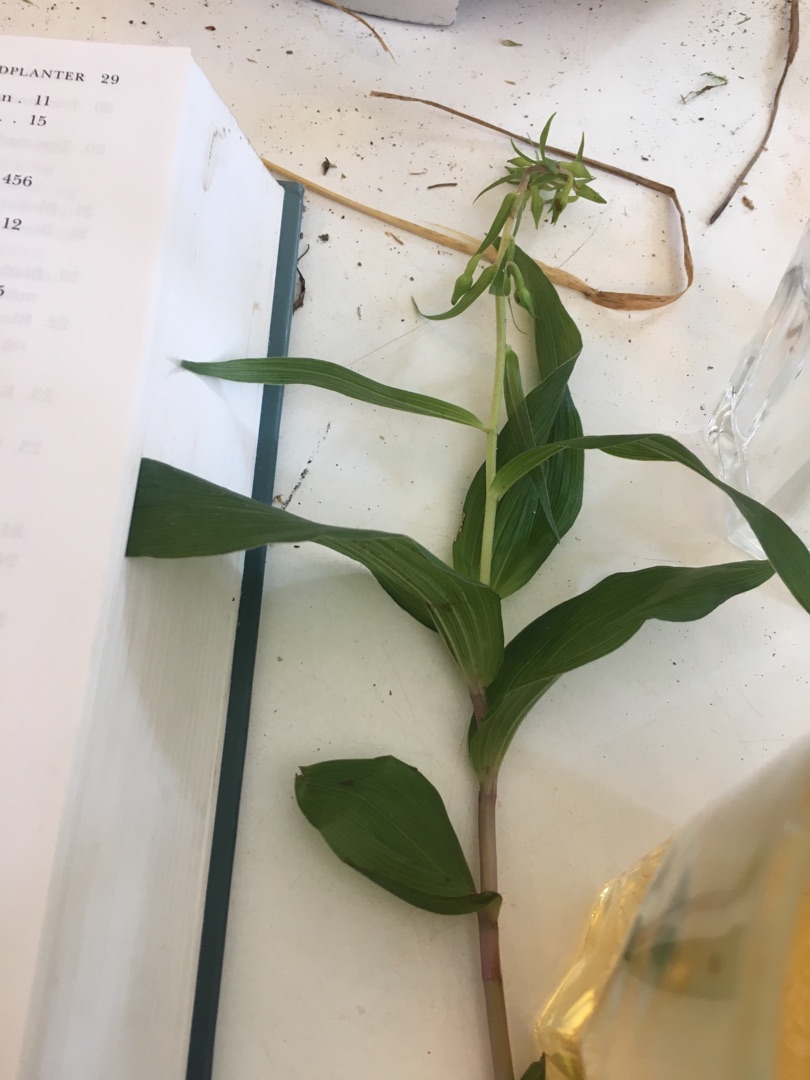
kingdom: Plantae
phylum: Tracheophyta
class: Liliopsida
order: Asparagales
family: Orchidaceae
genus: Epipactis
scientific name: Epipactis helleborine
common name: Skov-hullæbe
